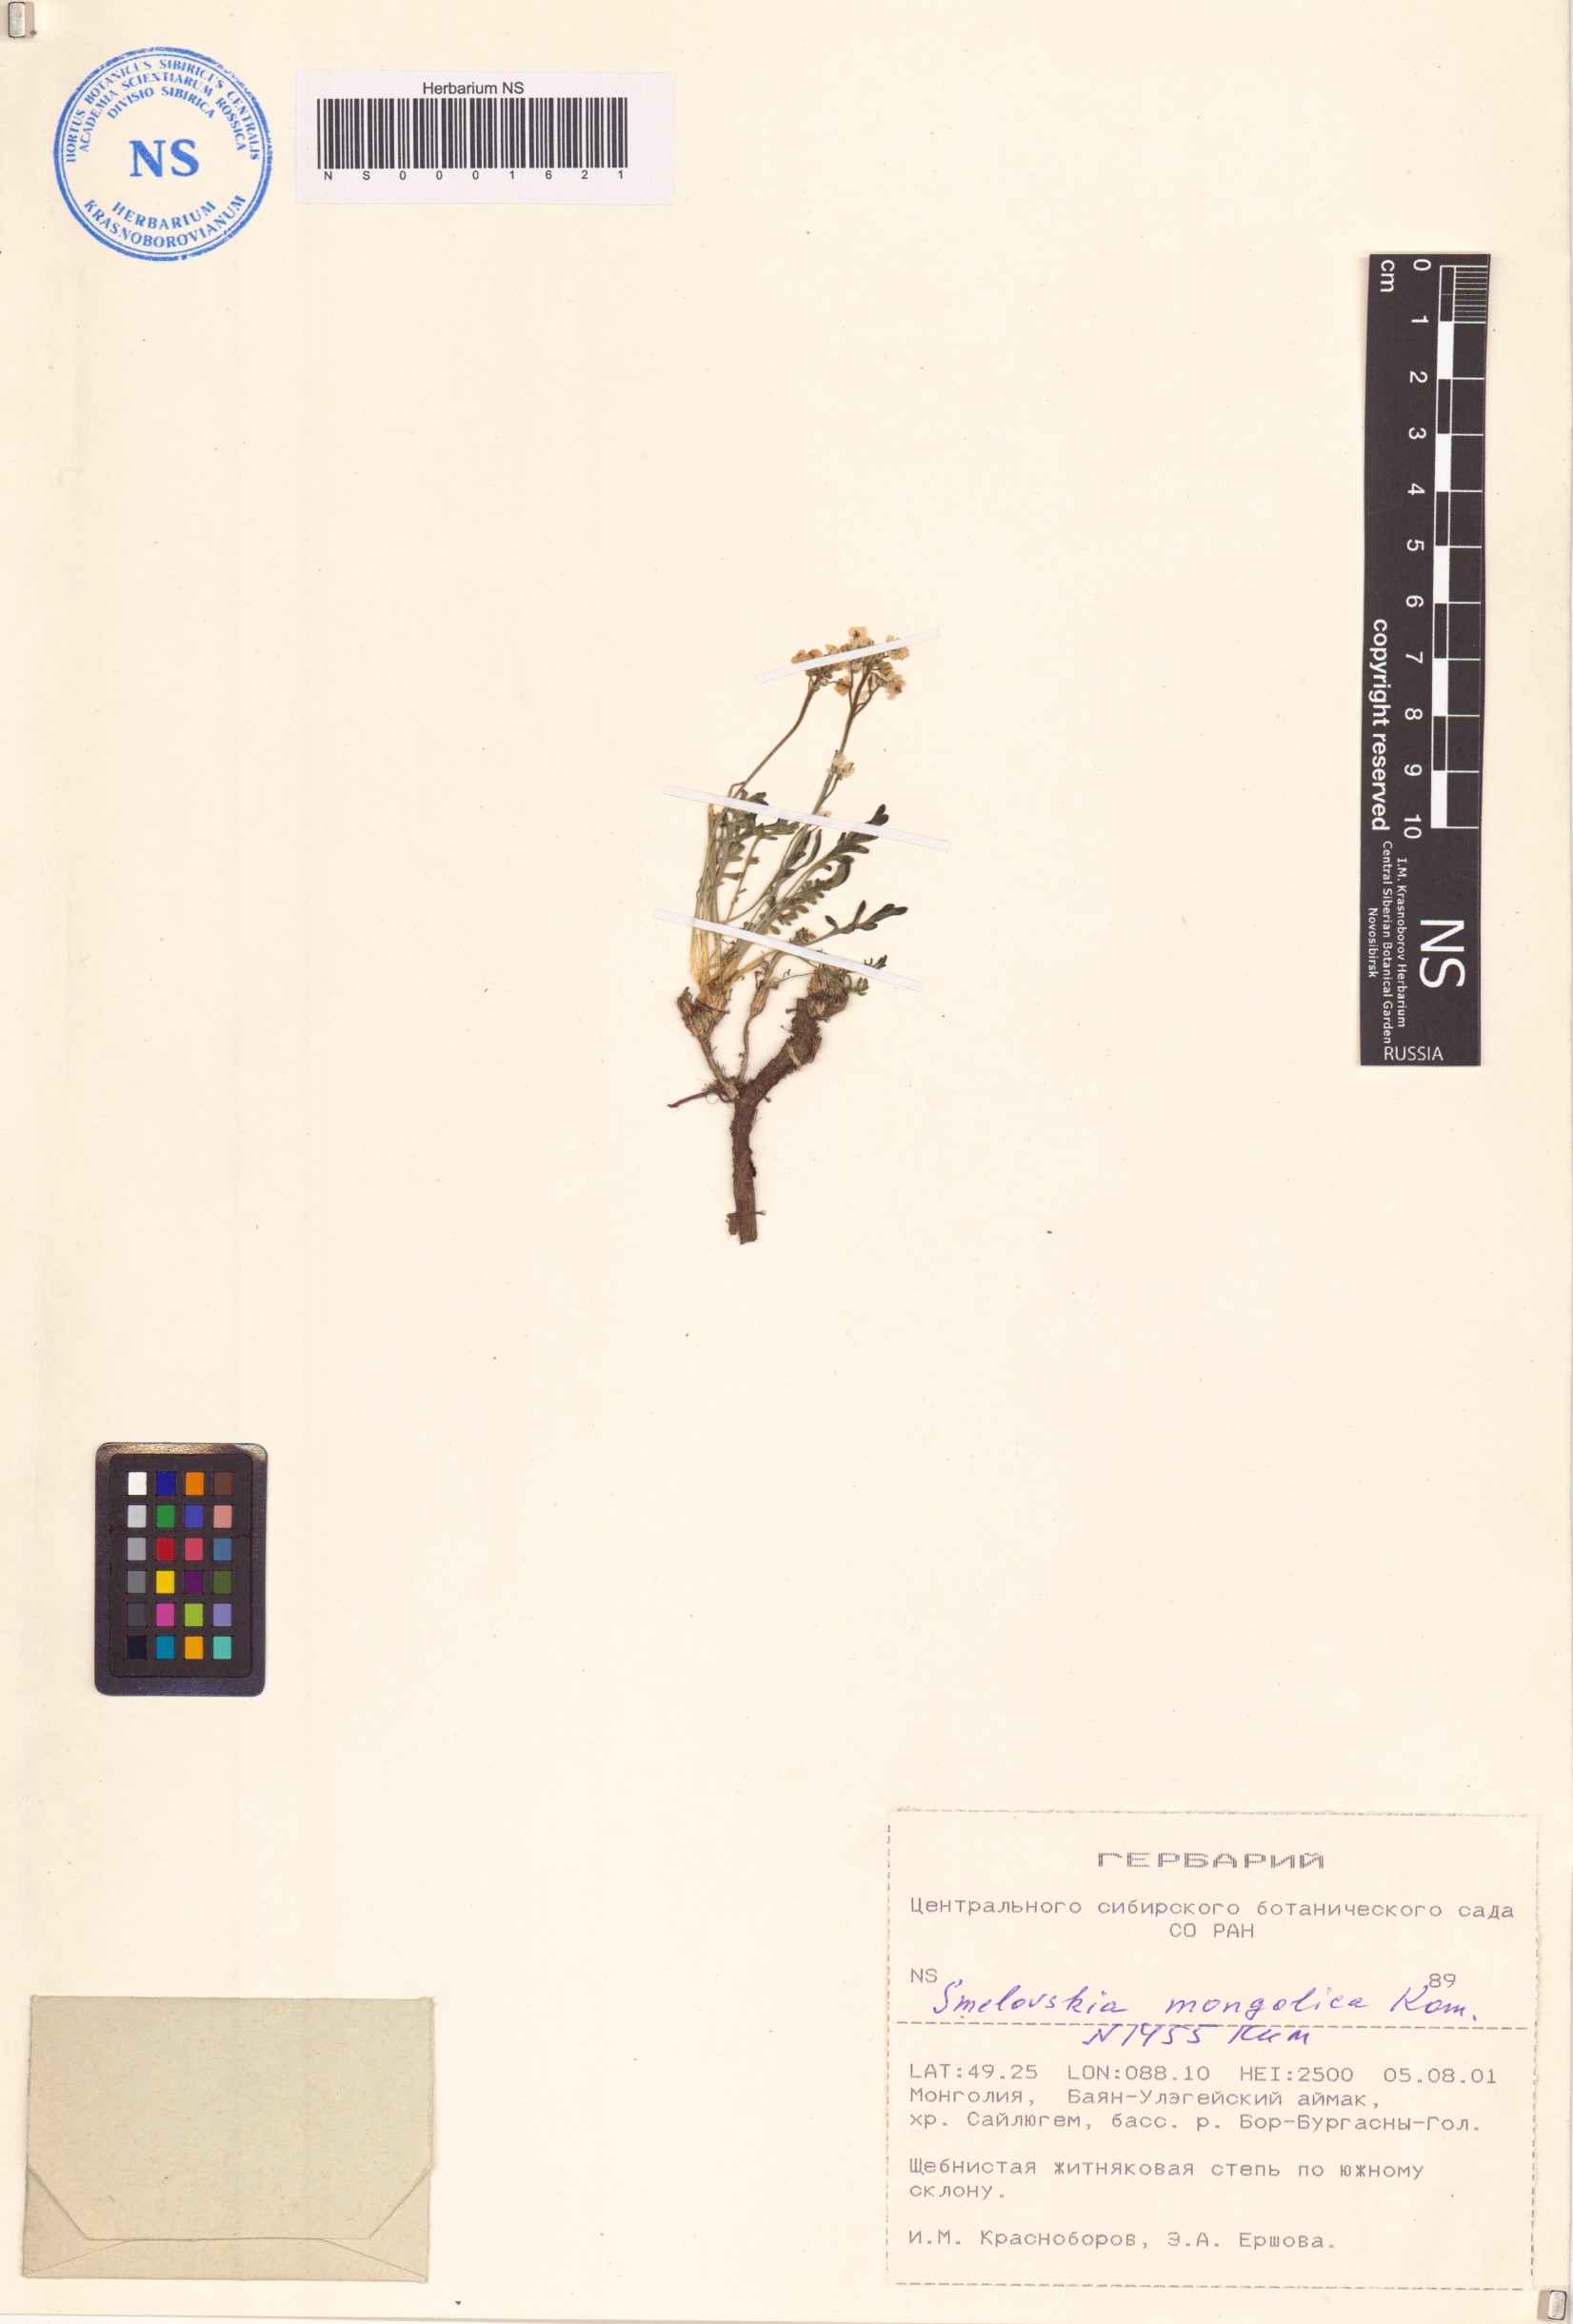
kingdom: Plantae
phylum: Tracheophyta
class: Magnoliopsida
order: Brassicales
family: Brassicaceae
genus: Smelowskia
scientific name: Smelowskia mongolica
